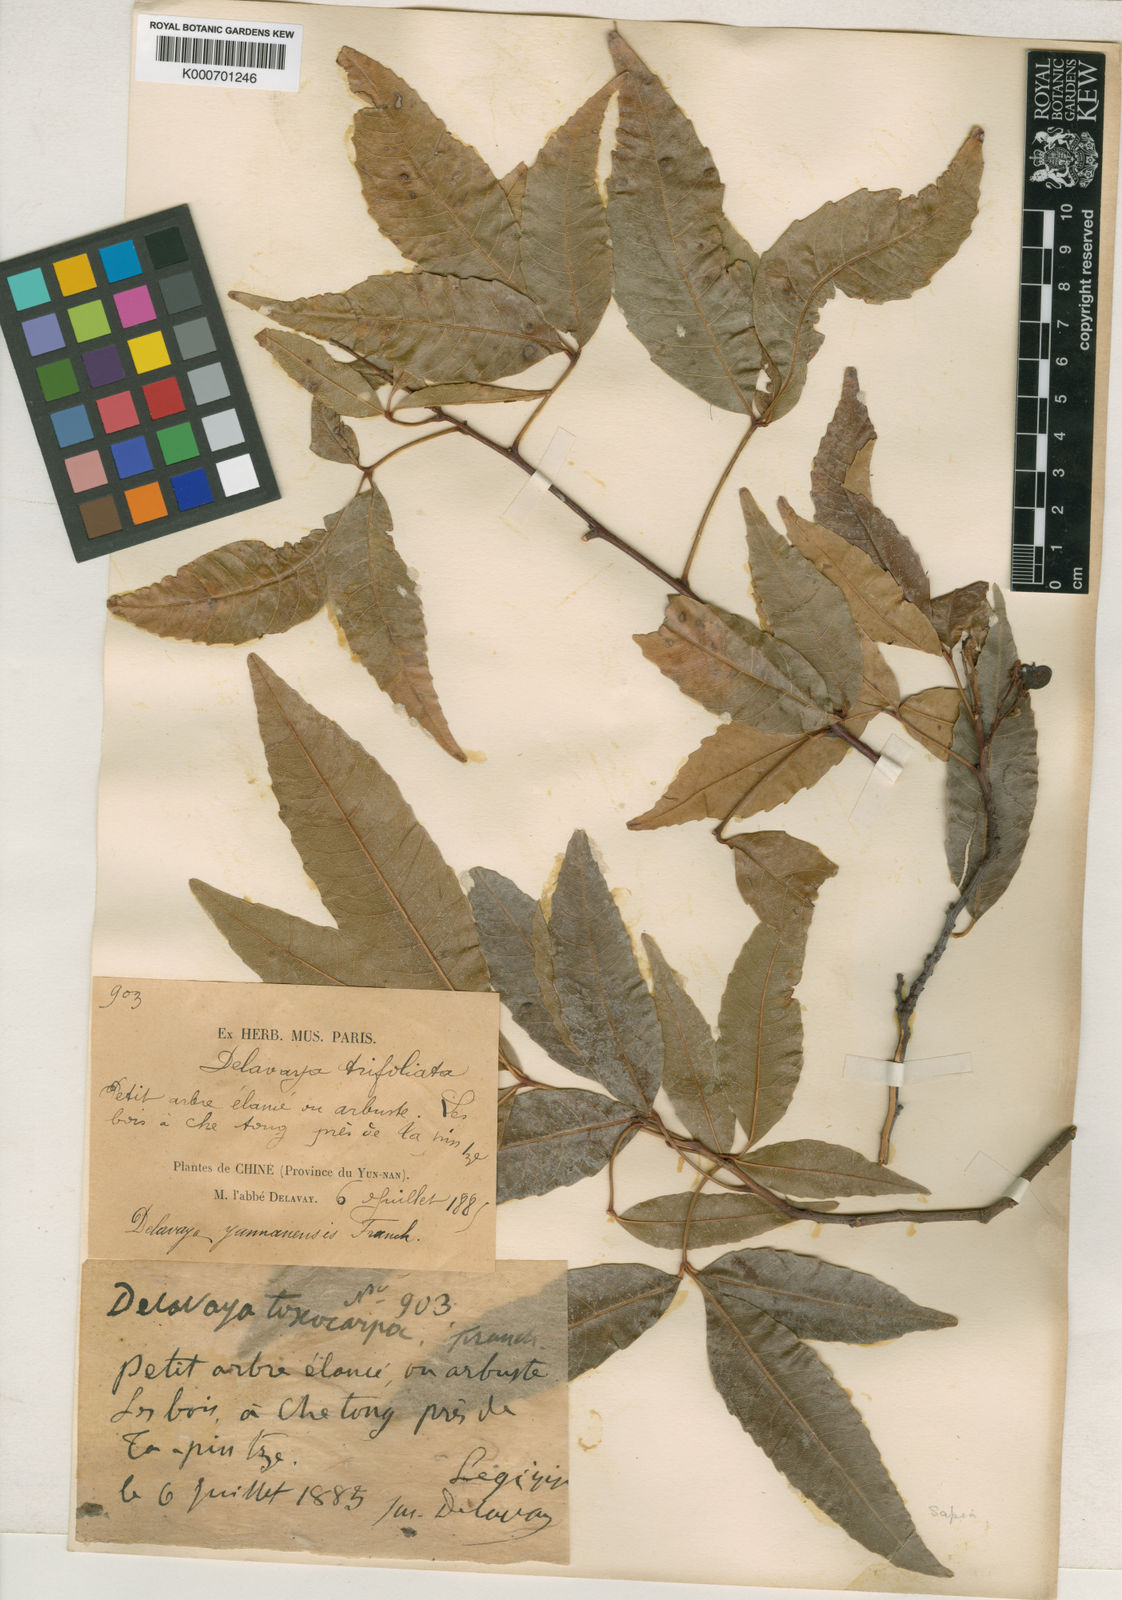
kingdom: Plantae
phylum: Tracheophyta
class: Magnoliopsida
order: Sapindales
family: Sapindaceae
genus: Delavaya
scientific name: Delavaya
